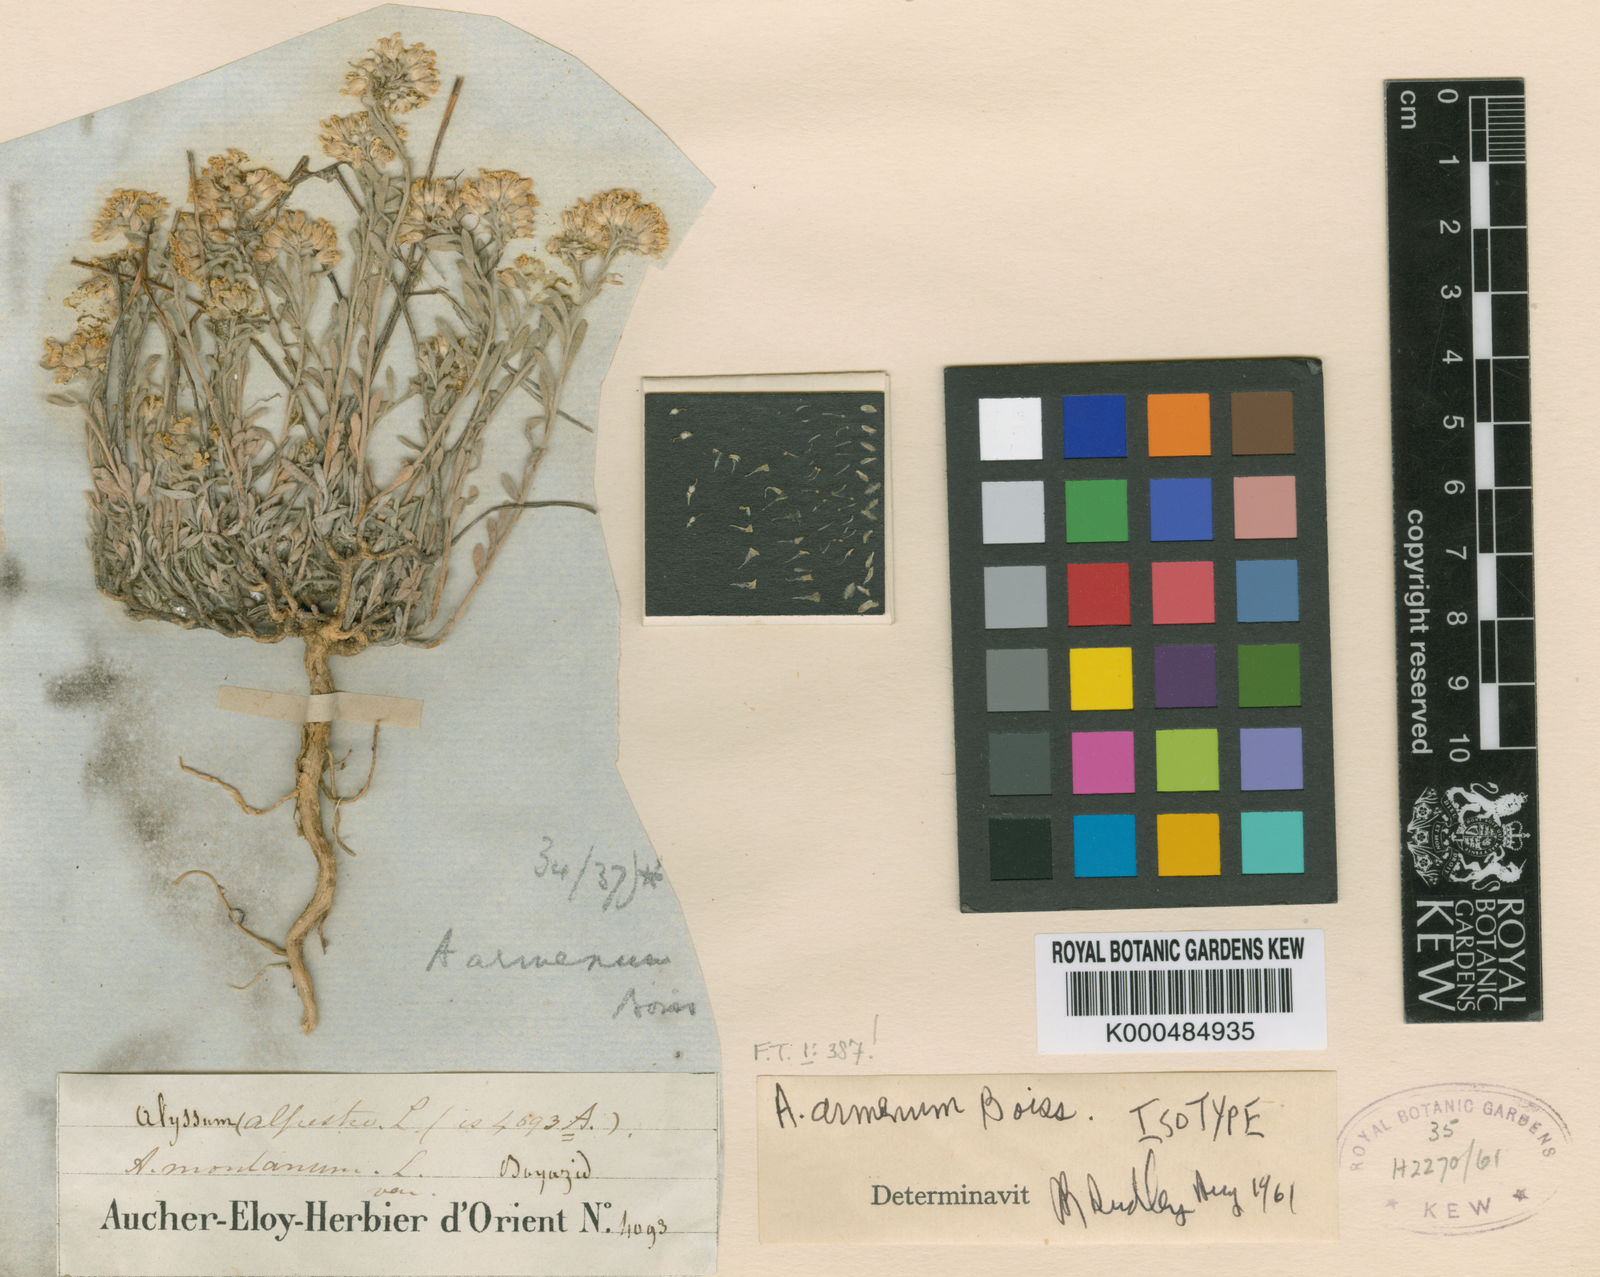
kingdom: Plantae
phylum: Tracheophyta
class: Magnoliopsida
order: Brassicales
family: Brassicaceae
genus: Alyssum
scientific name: Alyssum armenum
